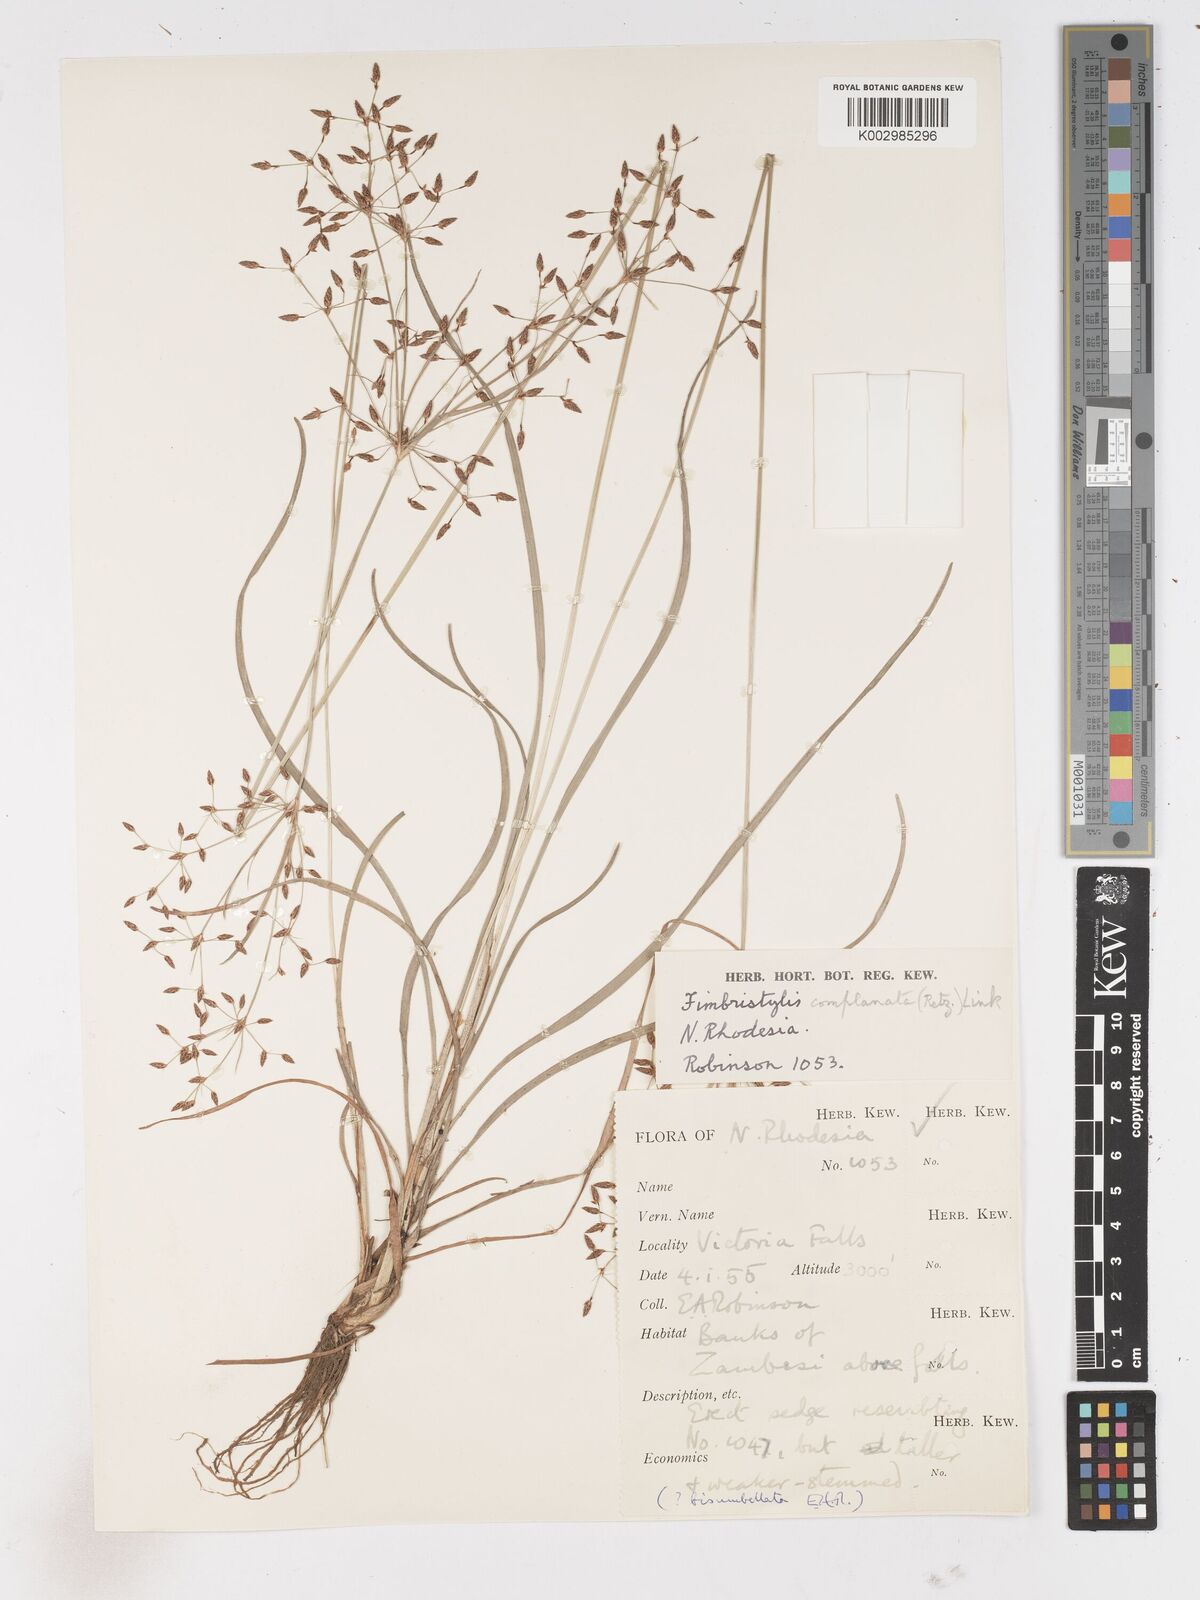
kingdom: Plantae
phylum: Tracheophyta
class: Liliopsida
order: Poales
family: Cyperaceae
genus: Fimbristylis
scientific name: Fimbristylis complanata
